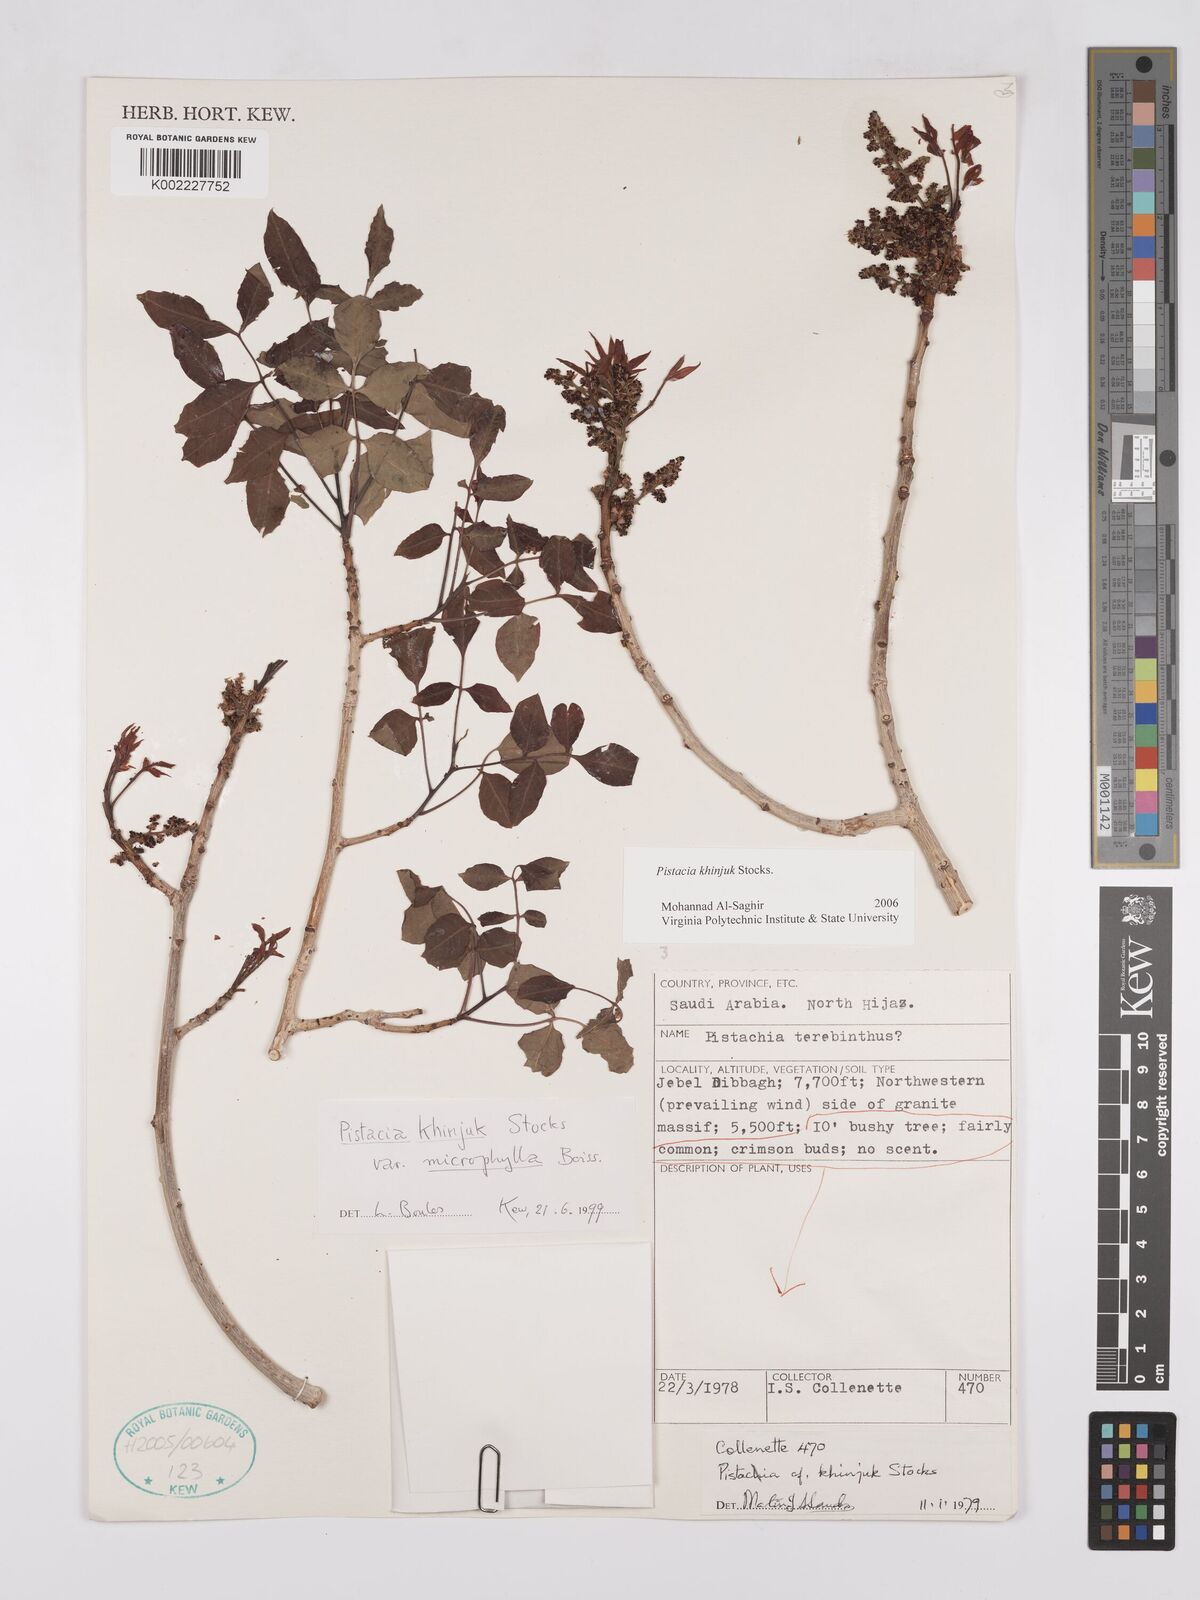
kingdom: Plantae
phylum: Tracheophyta
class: Magnoliopsida
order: Sapindales
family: Anacardiaceae
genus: Pistacia
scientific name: Pistacia khinjuk
